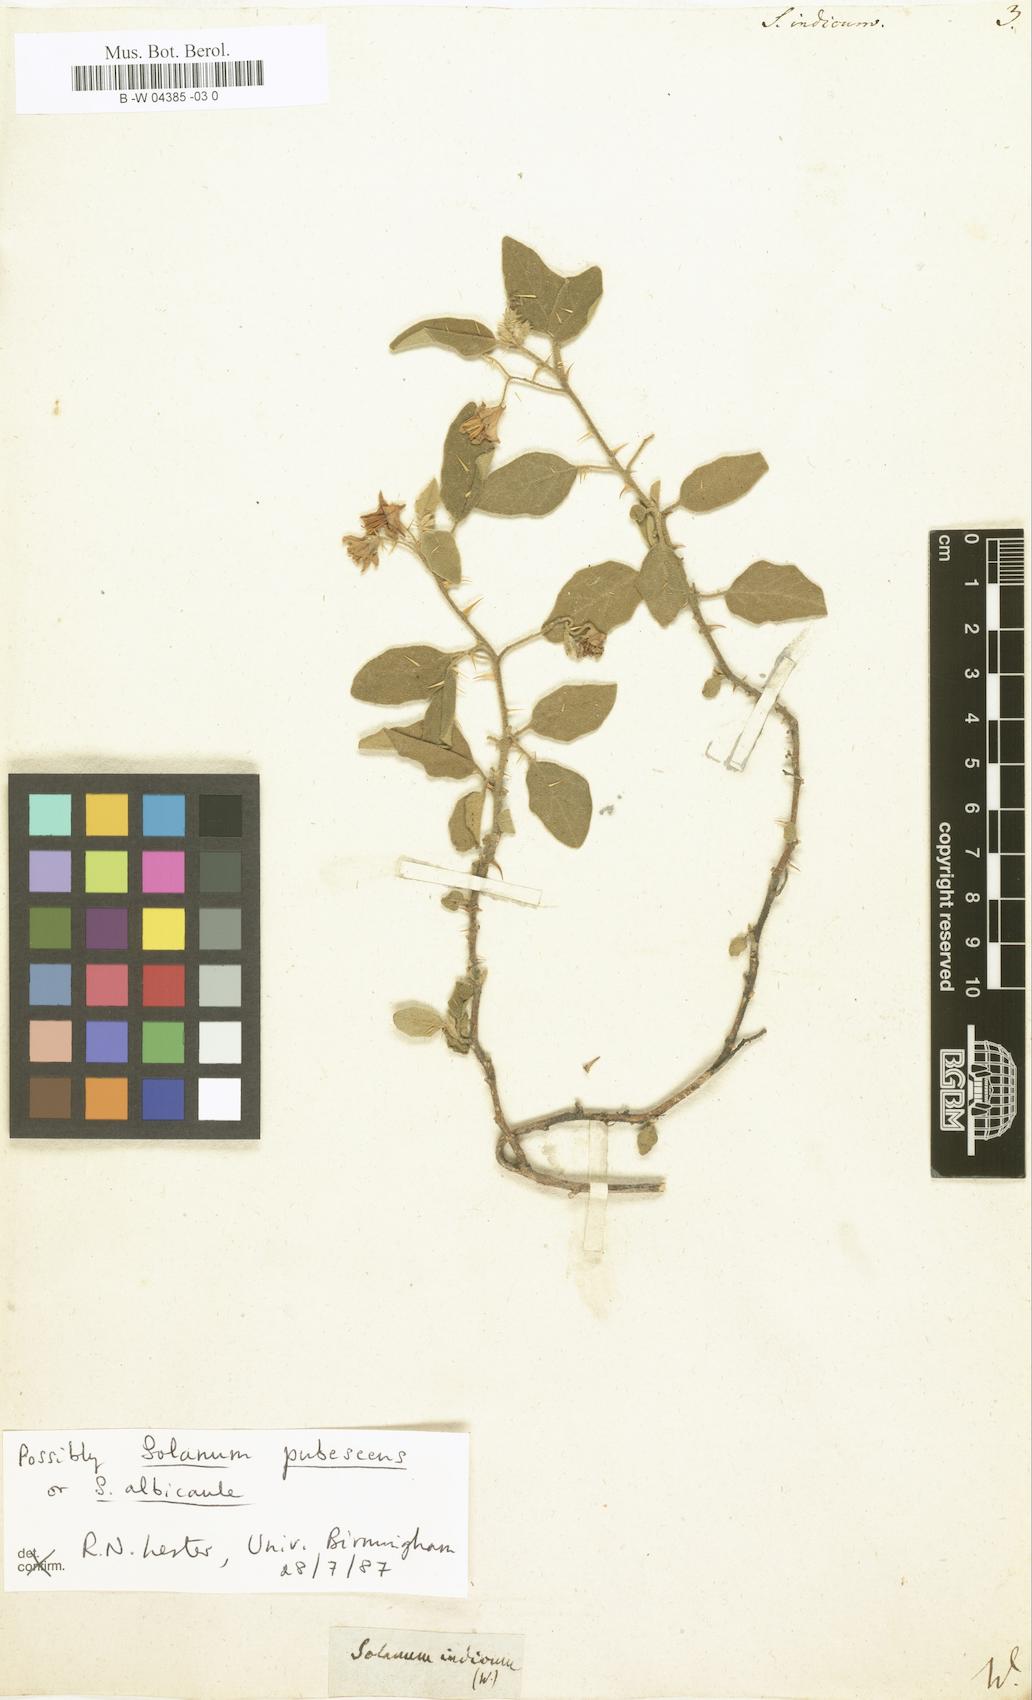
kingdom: Plantae
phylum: Tracheophyta
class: Magnoliopsida
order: Solanales
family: Solanaceae
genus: Solanum
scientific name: Solanum
